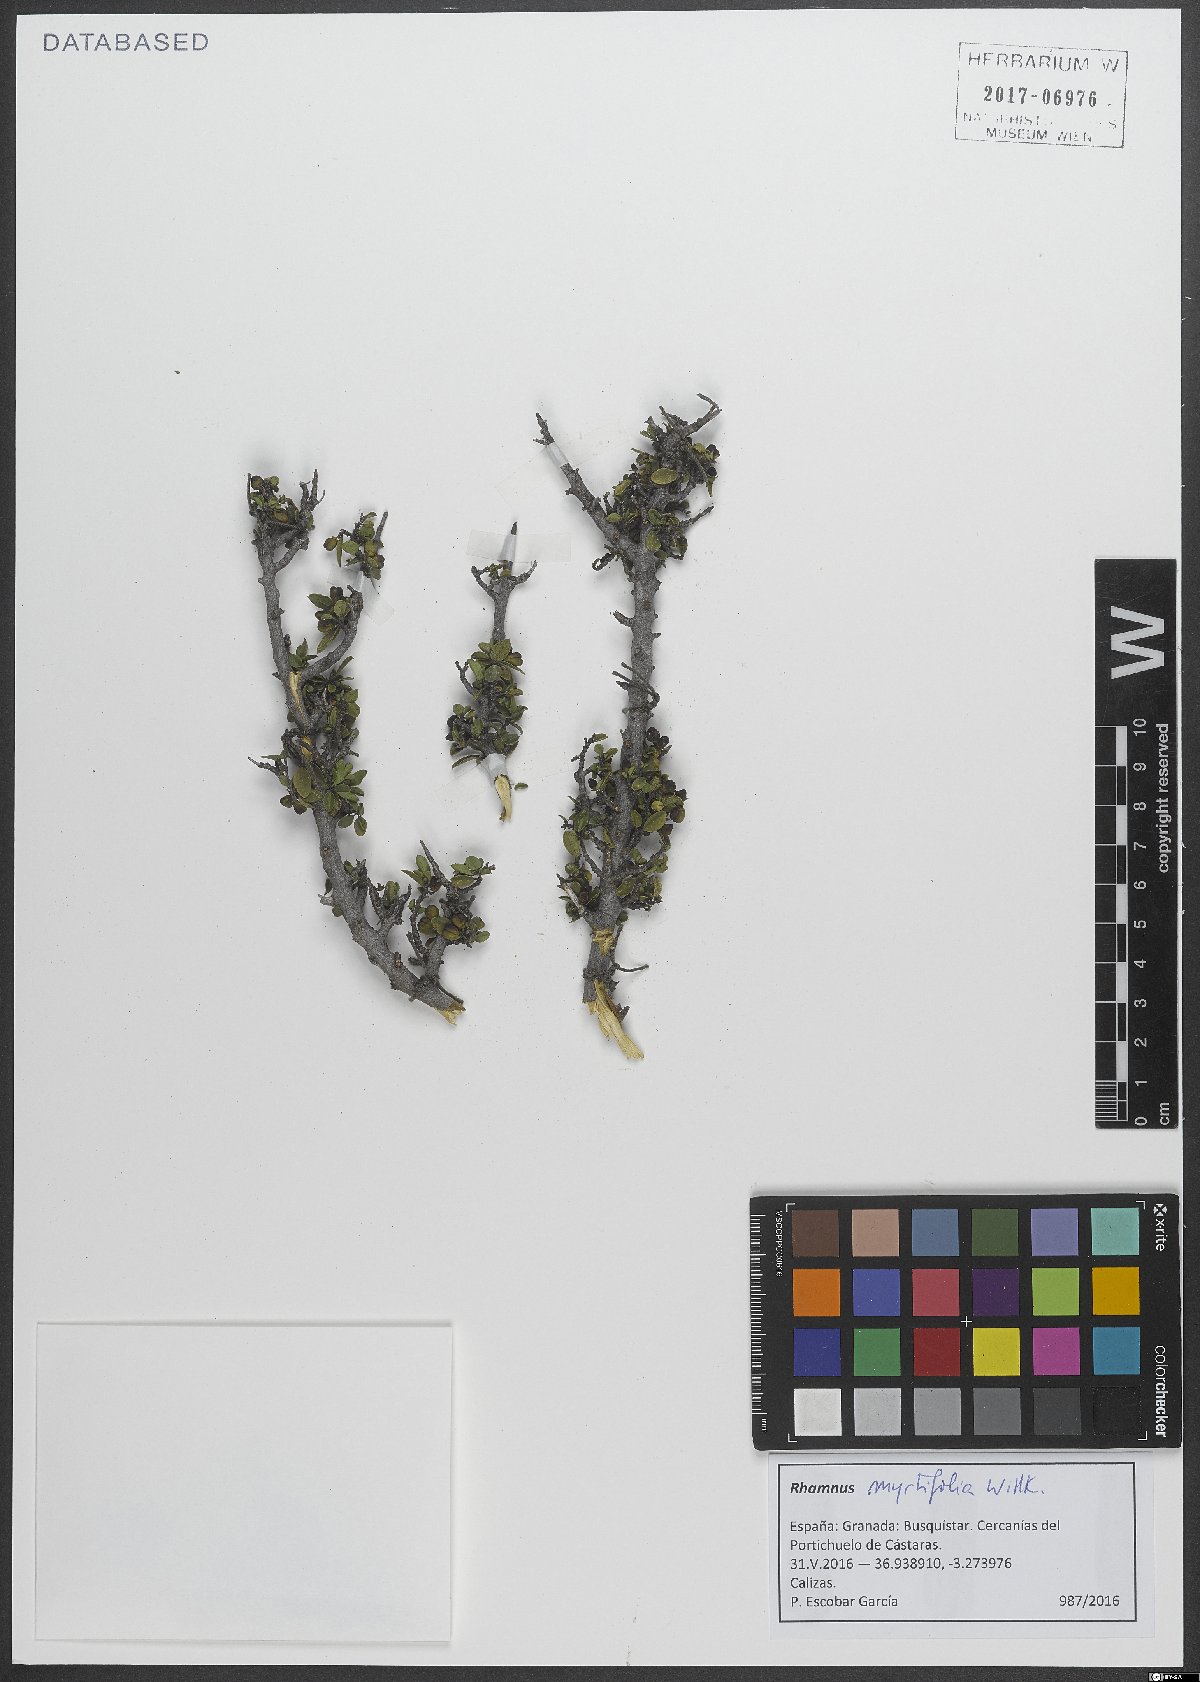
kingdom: Plantae
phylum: Tracheophyta
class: Magnoliopsida
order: Rosales
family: Rhamnaceae
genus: Rhamnus
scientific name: Rhamnus myrtifolia
